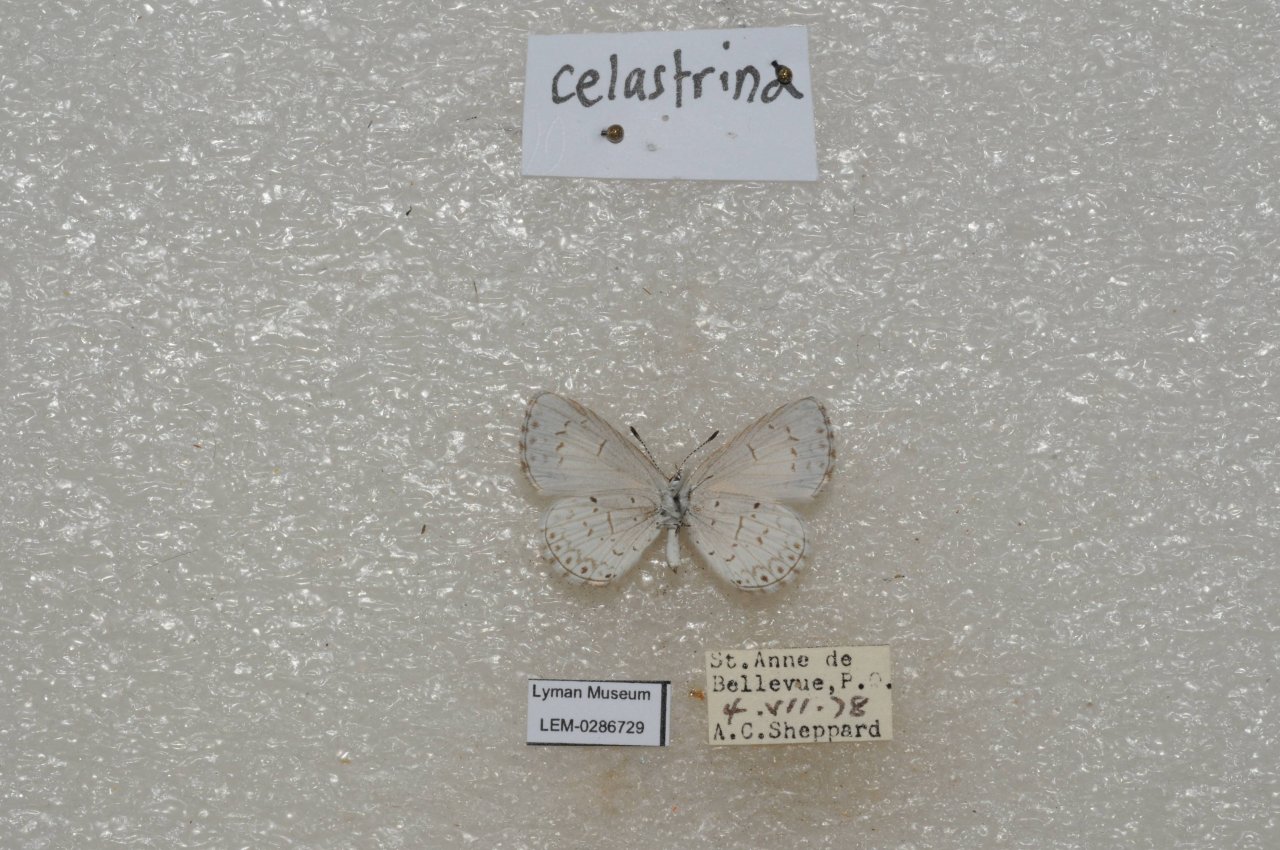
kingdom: Animalia
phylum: Arthropoda
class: Insecta
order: Lepidoptera
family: Lycaenidae
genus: Celastrina
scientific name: Celastrina lucia
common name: Northern Spring Azure
